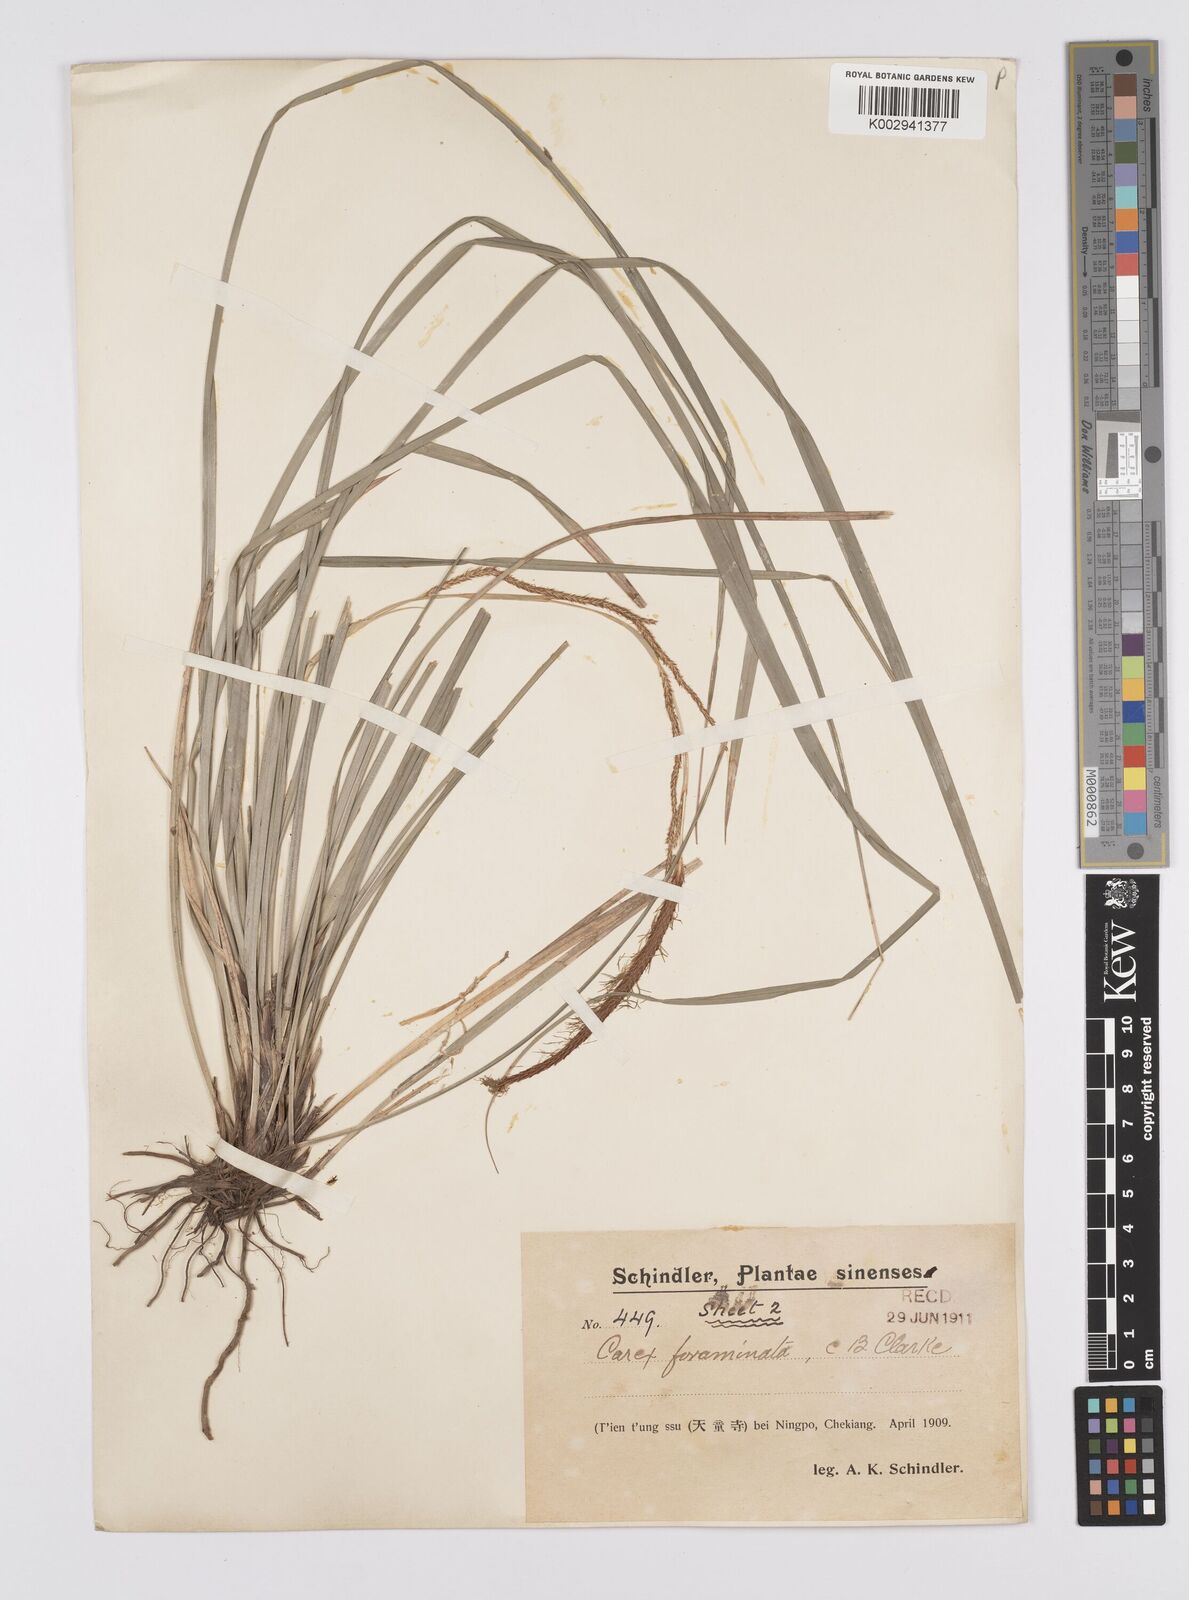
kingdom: Plantae
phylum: Tracheophyta
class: Liliopsida
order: Poales
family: Cyperaceae
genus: Carex
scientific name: Carex foraminata
